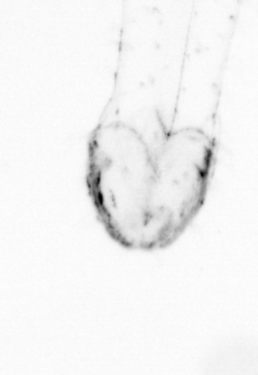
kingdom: Animalia
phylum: Arthropoda
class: Copepoda
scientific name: Copepoda
